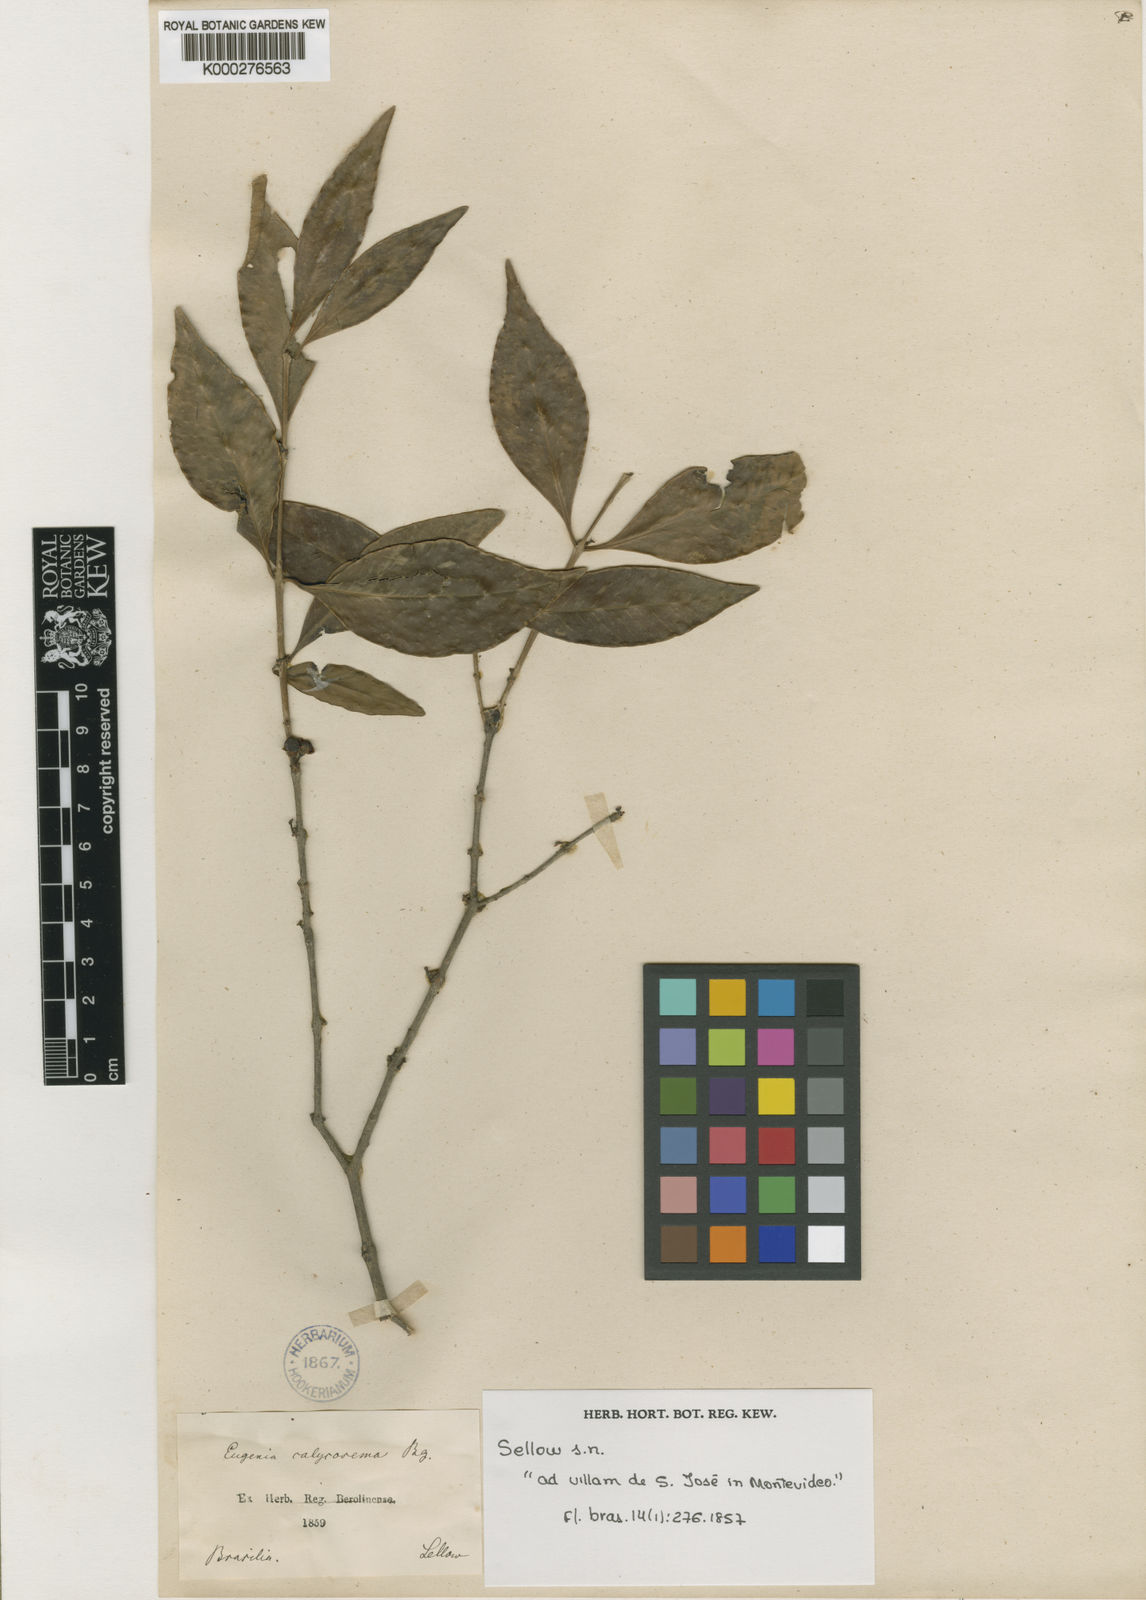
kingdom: Plantae
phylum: Tracheophyta
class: Magnoliopsida
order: Myrtales
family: Myrtaceae
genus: Eugenia
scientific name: Eugenia uruguayensis
